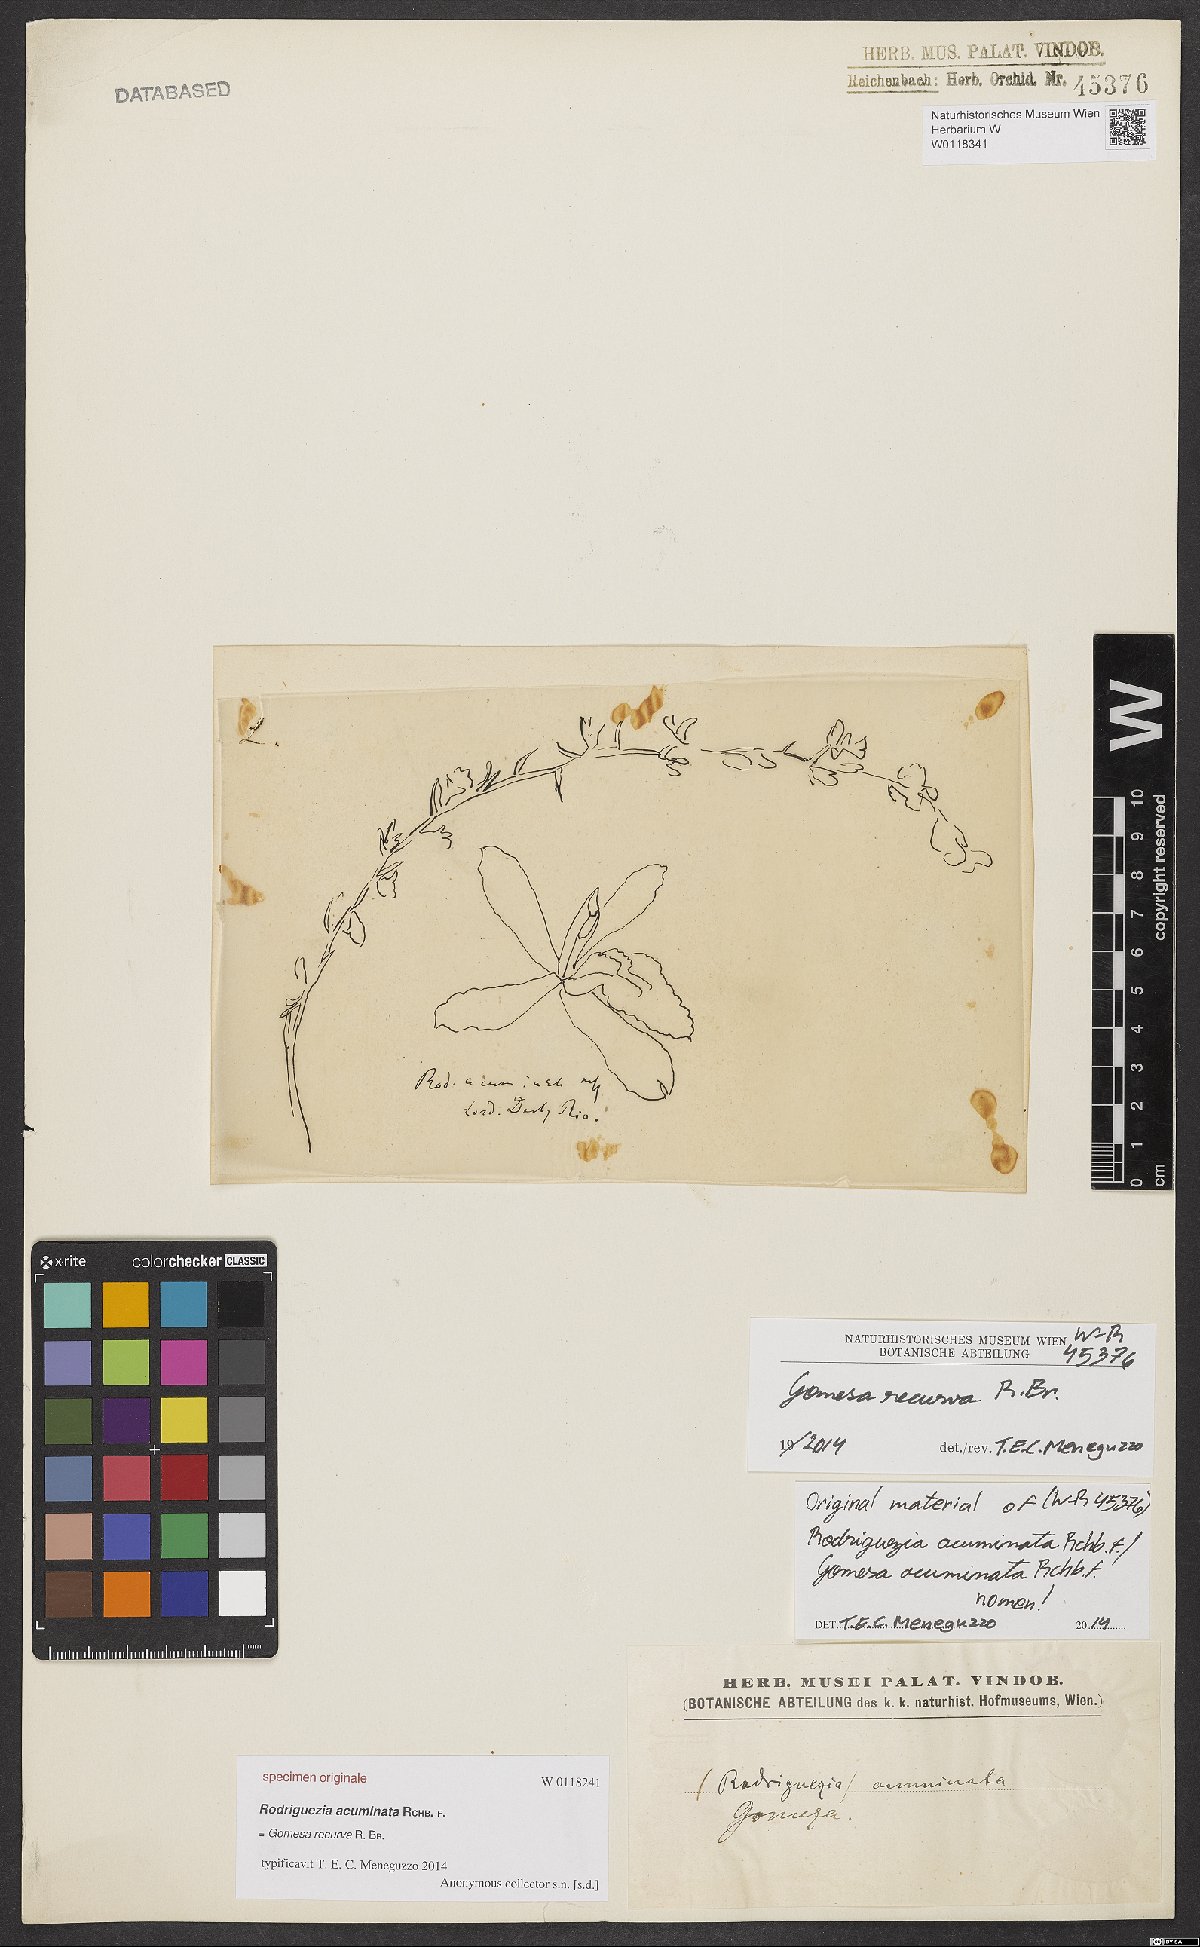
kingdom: Plantae
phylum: Tracheophyta
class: Liliopsida
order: Asparagales
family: Orchidaceae
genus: Rodriguezia
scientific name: Rodriguezia
